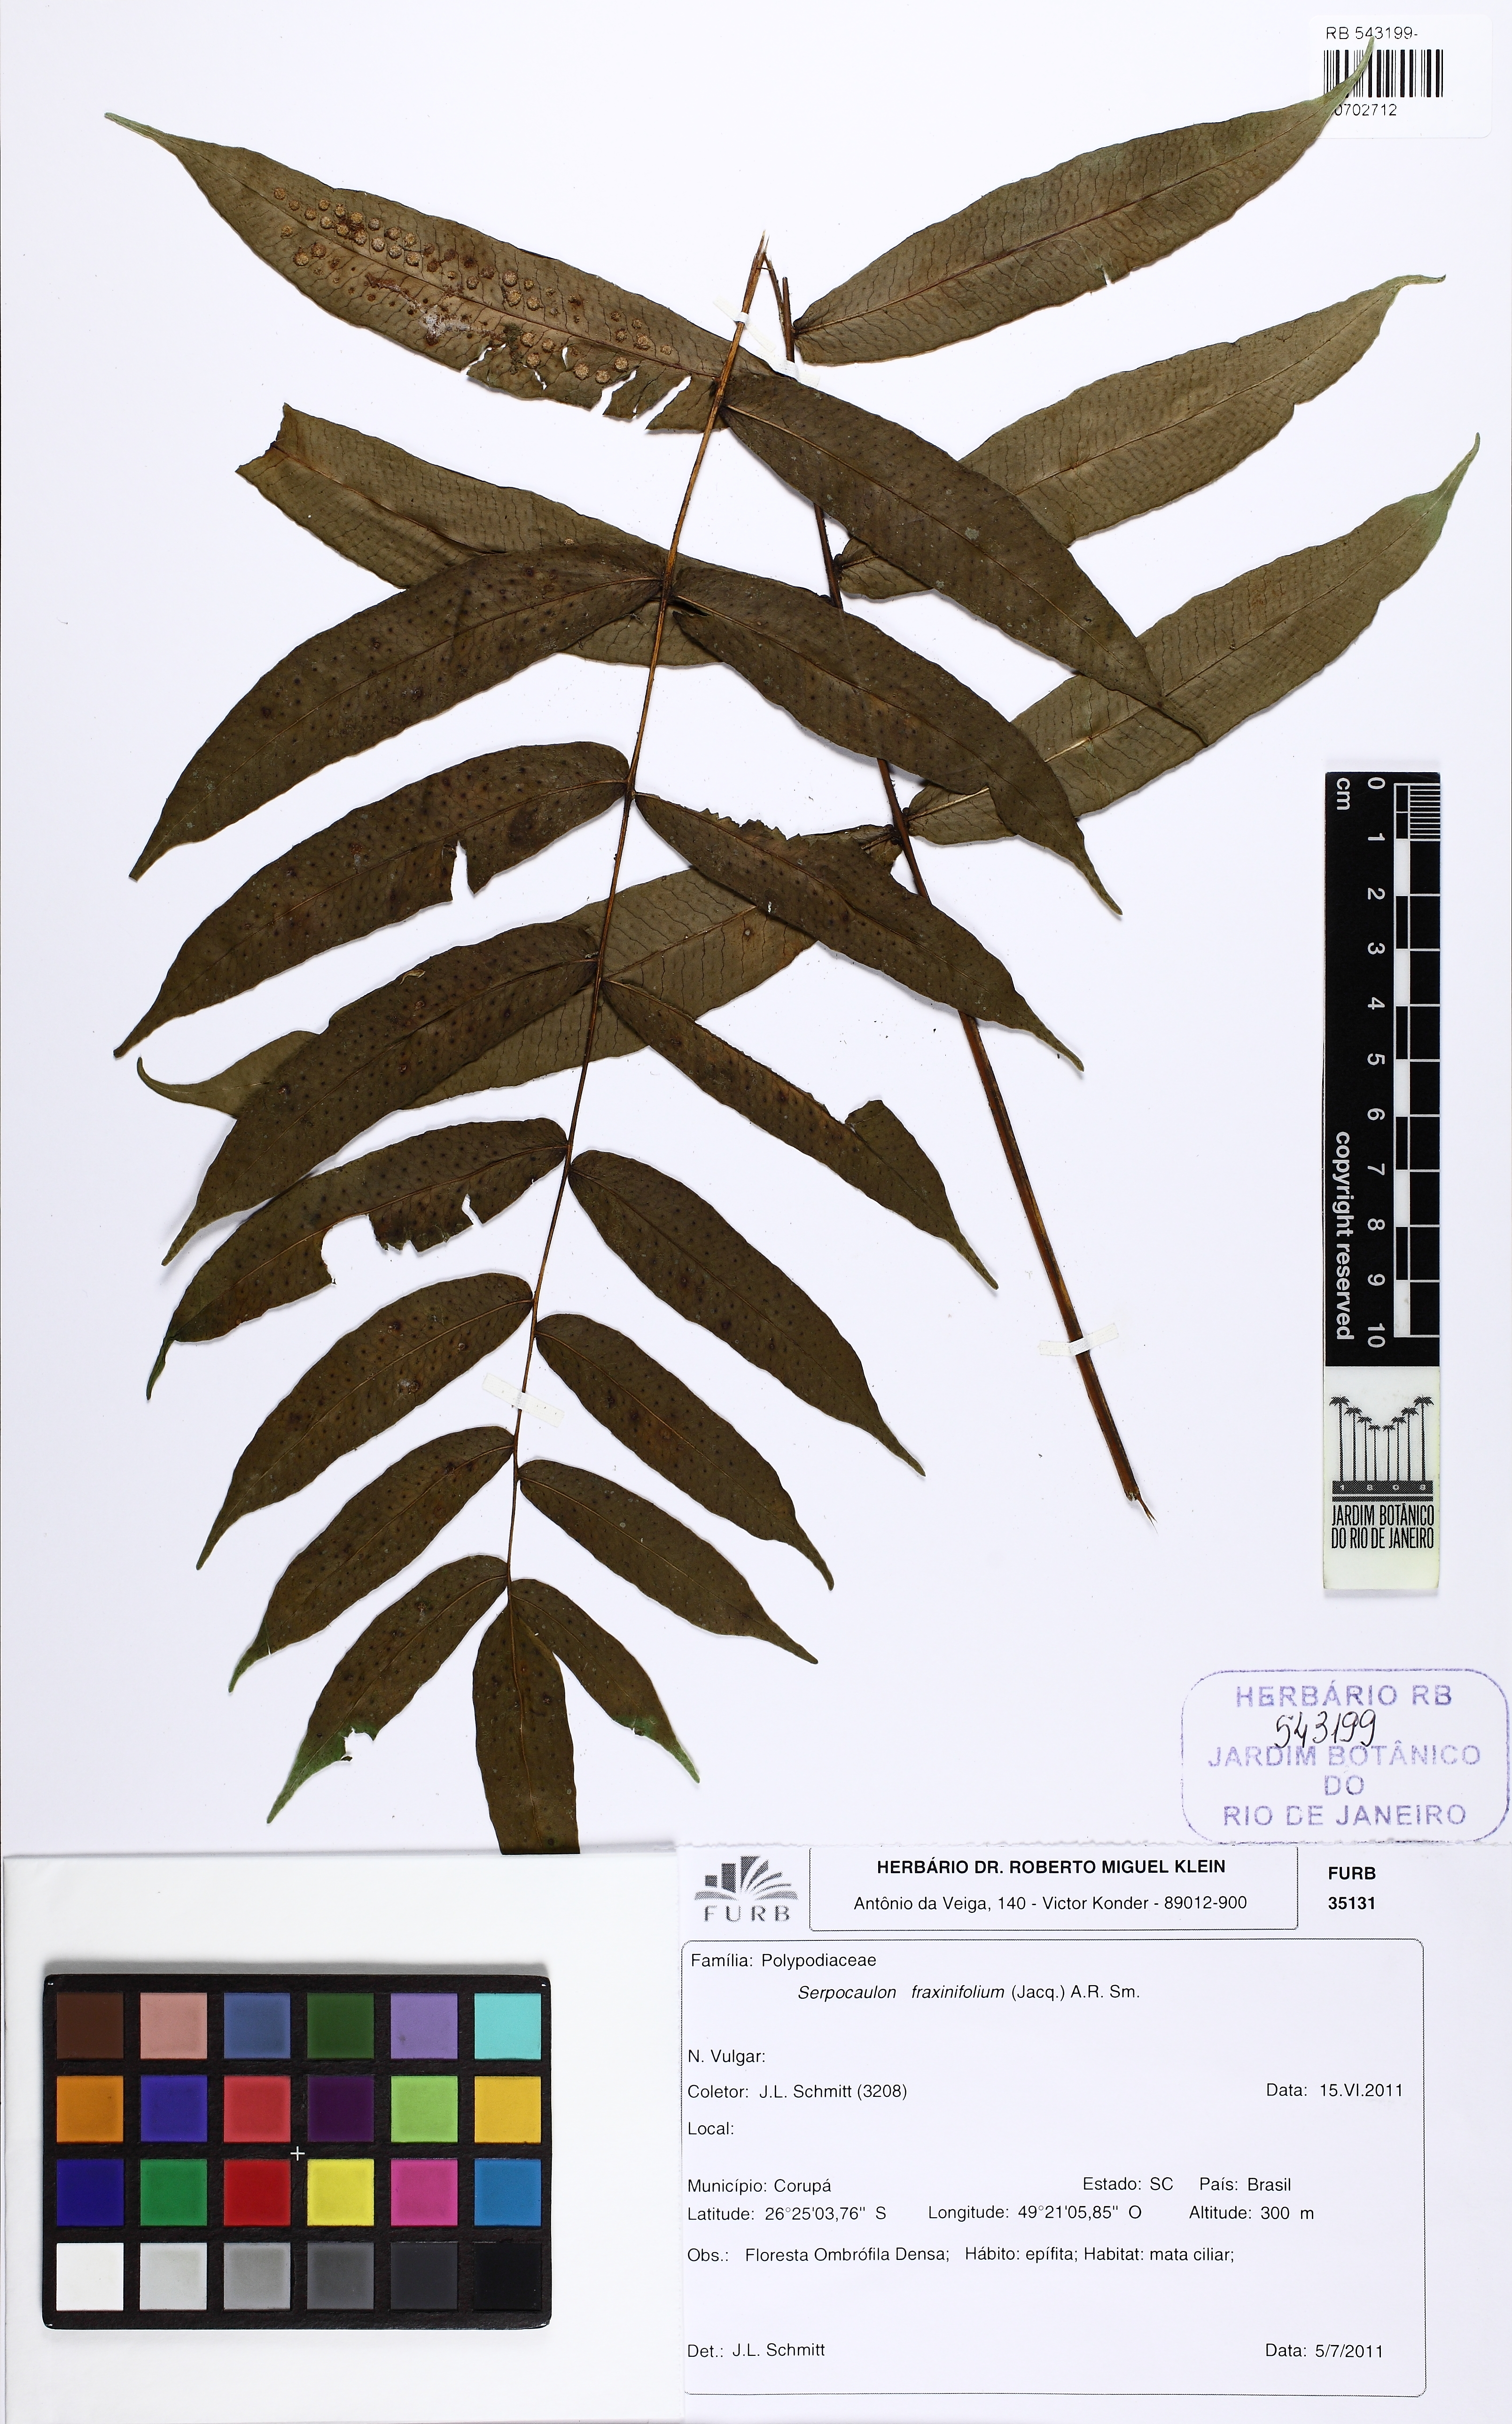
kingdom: Plantae
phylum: Tracheophyta
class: Polypodiopsida
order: Polypodiales
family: Polypodiaceae
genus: Serpocaulon
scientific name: Serpocaulon fraxinifolium
